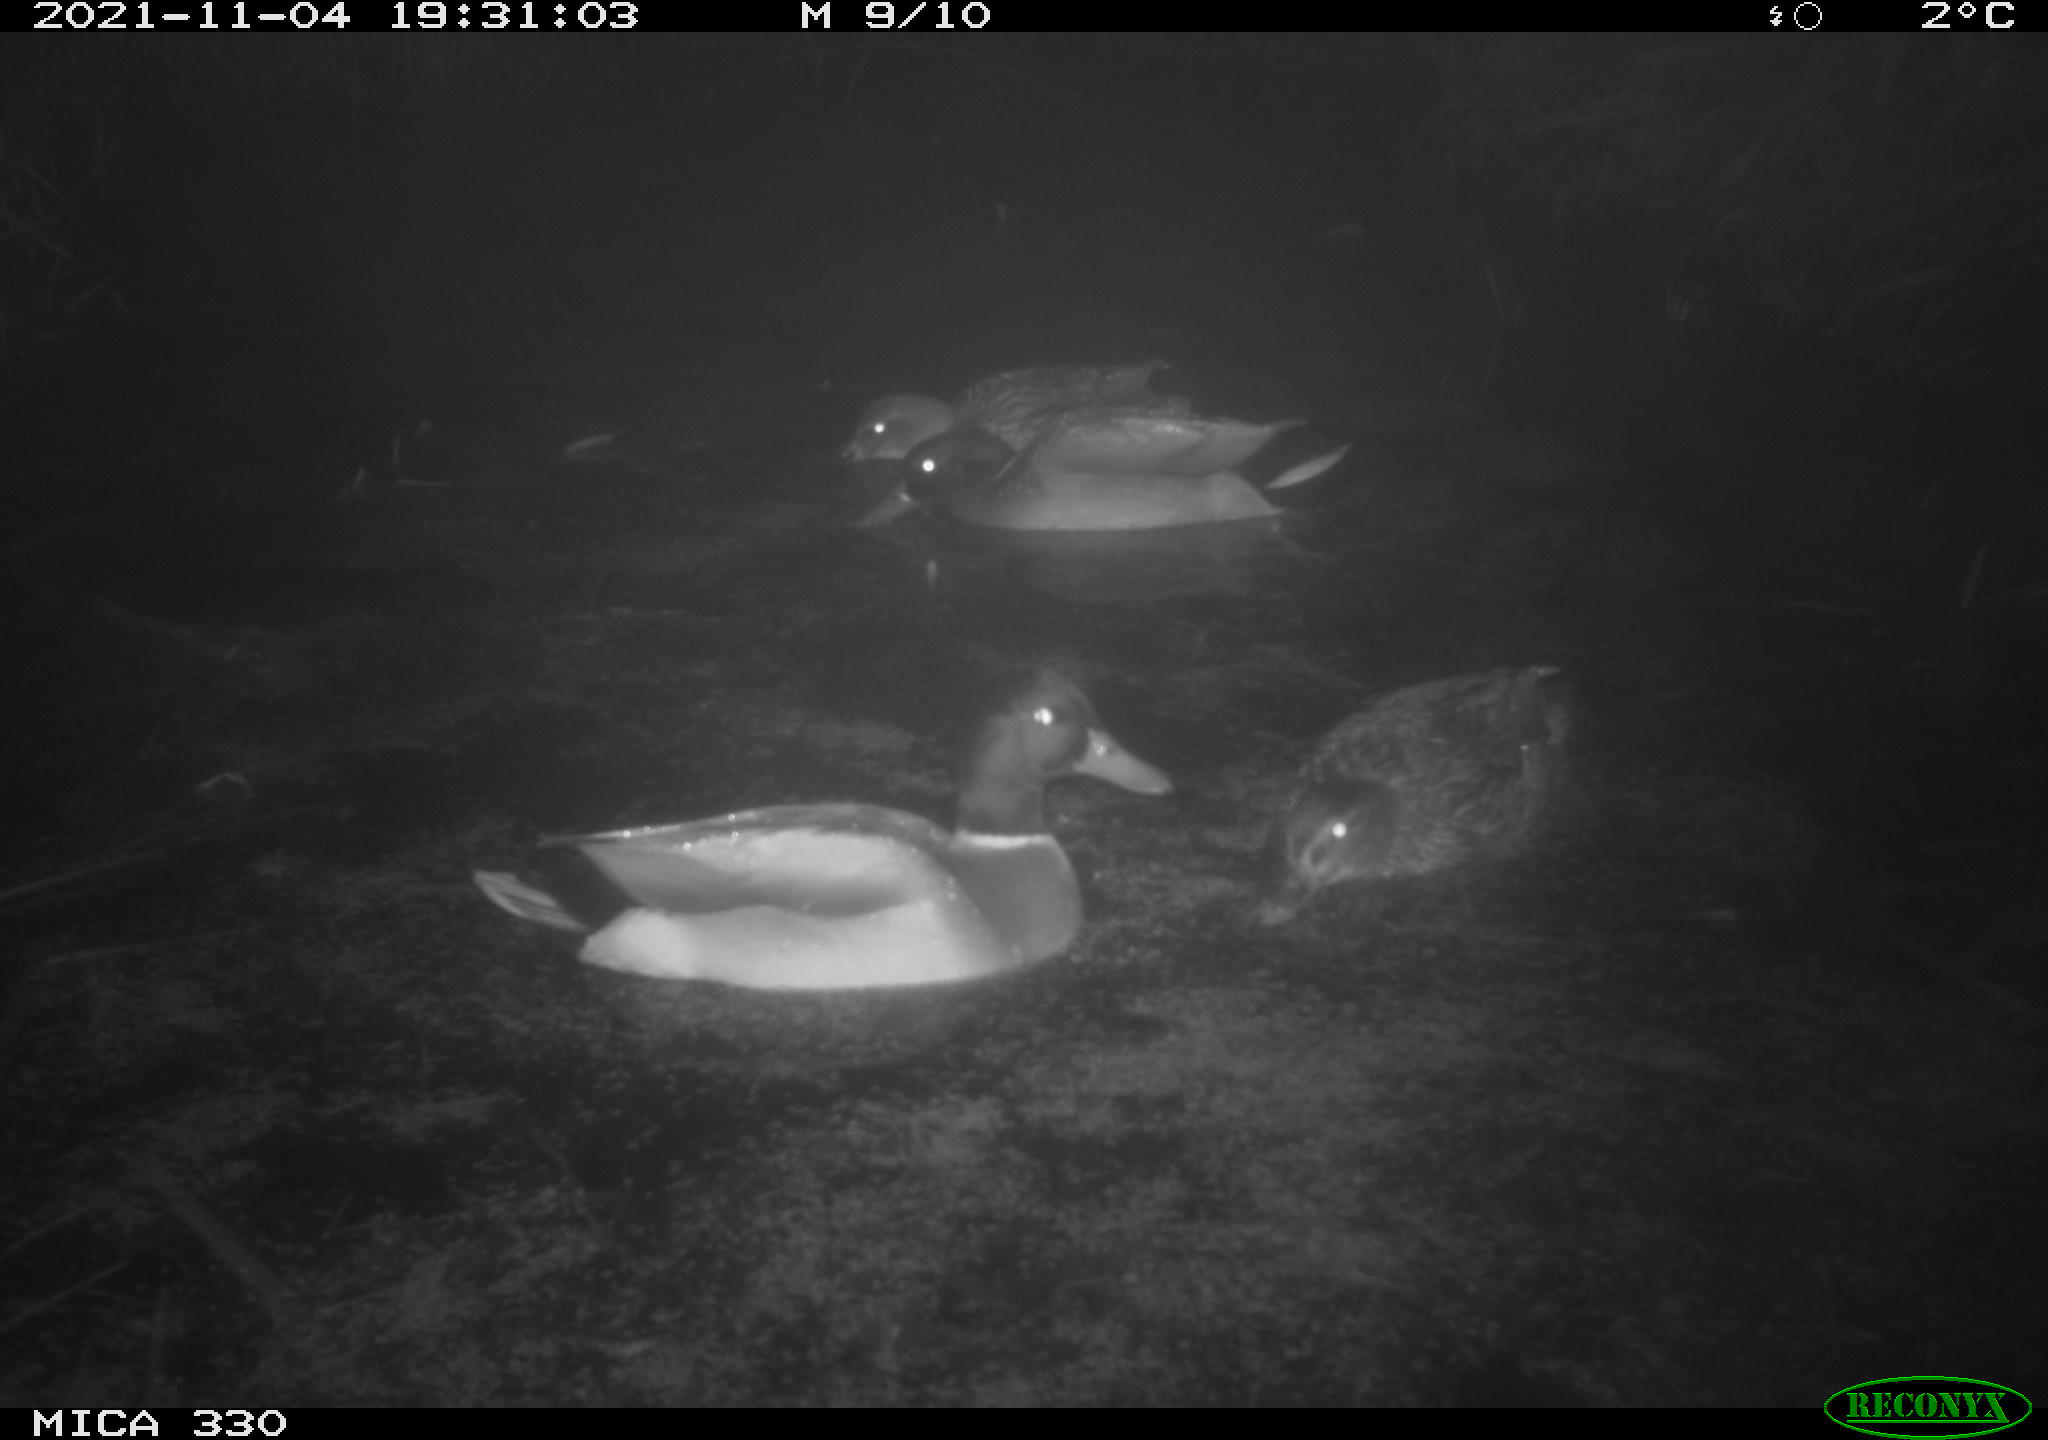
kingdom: Animalia
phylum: Chordata
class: Aves
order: Anseriformes
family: Anatidae
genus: Anas
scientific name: Anas platyrhynchos
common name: Mallard
